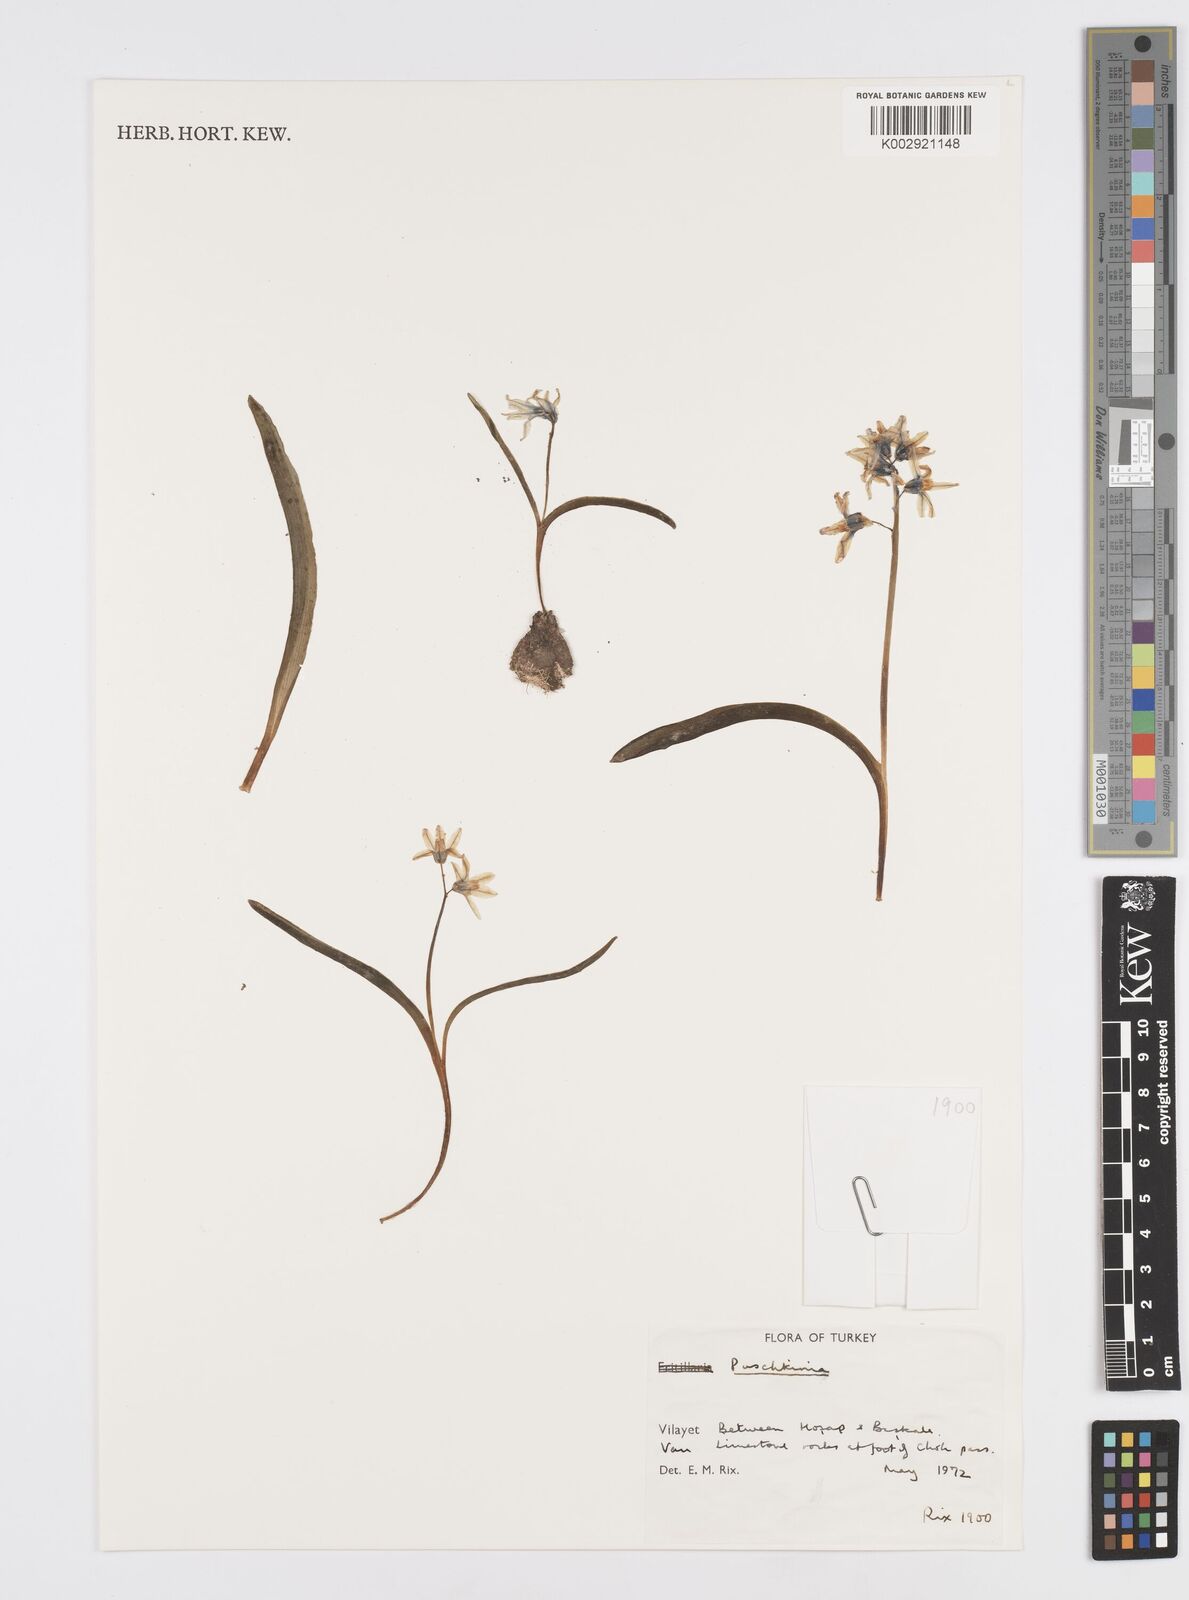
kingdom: Plantae
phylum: Tracheophyta
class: Liliopsida
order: Asparagales
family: Asparagaceae
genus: Puschkinia
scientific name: Puschkinia
